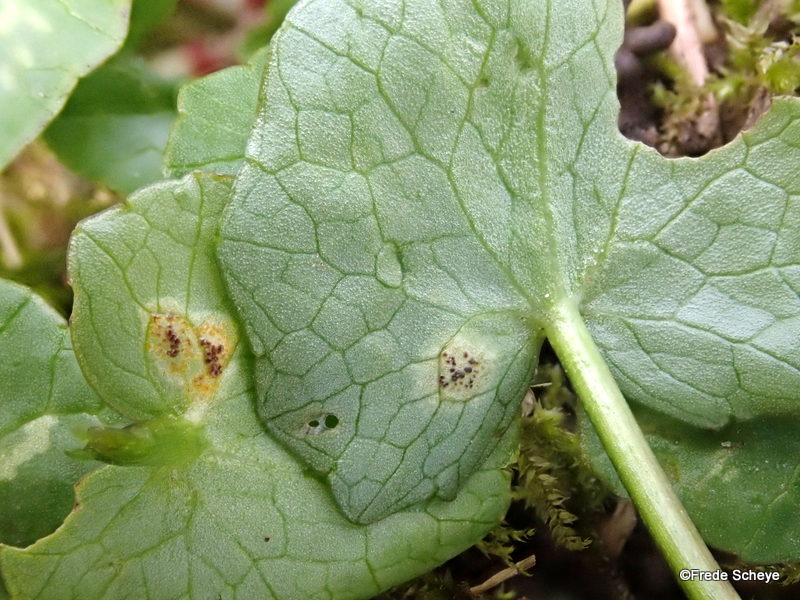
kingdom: Fungi
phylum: Basidiomycota
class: Pucciniomycetes
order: Pucciniales
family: Pucciniaceae
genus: Uromyces
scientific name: Uromyces ficariae
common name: vorterod-encellerust
